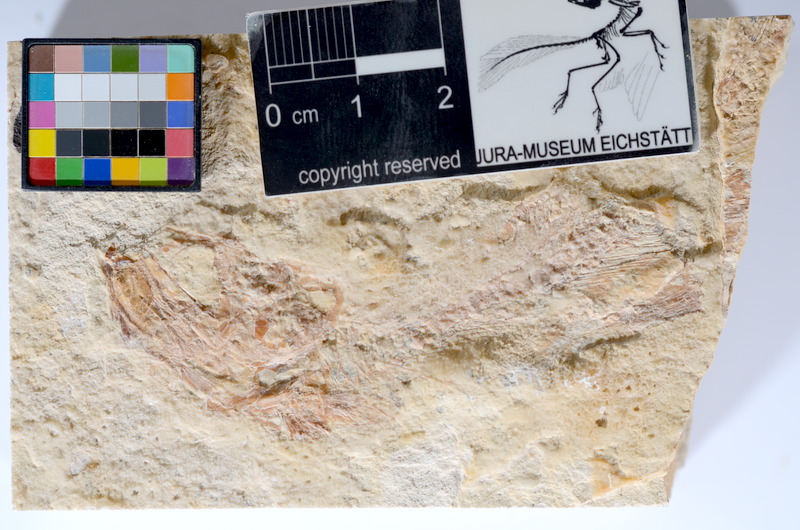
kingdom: Animalia
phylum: Chordata
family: Ascalaboidae
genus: Tharsis
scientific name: Tharsis dubius
